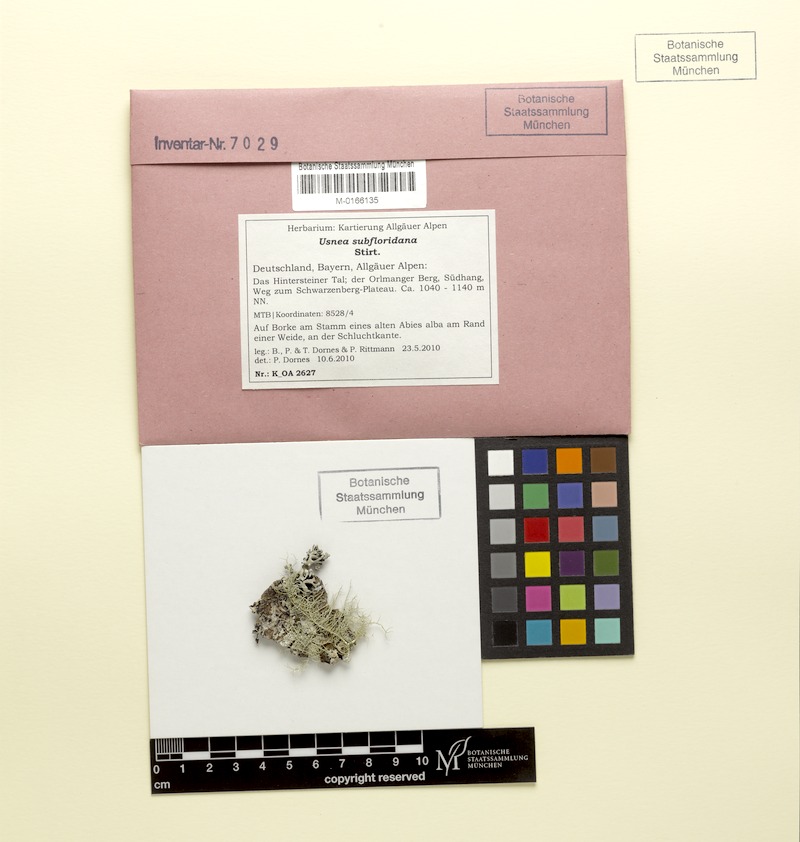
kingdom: Fungi
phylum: Ascomycota
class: Lecanoromycetes
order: Lecanorales
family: Parmeliaceae
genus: Usnea
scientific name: Usnea subfloridana
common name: Boreal beard lichen
